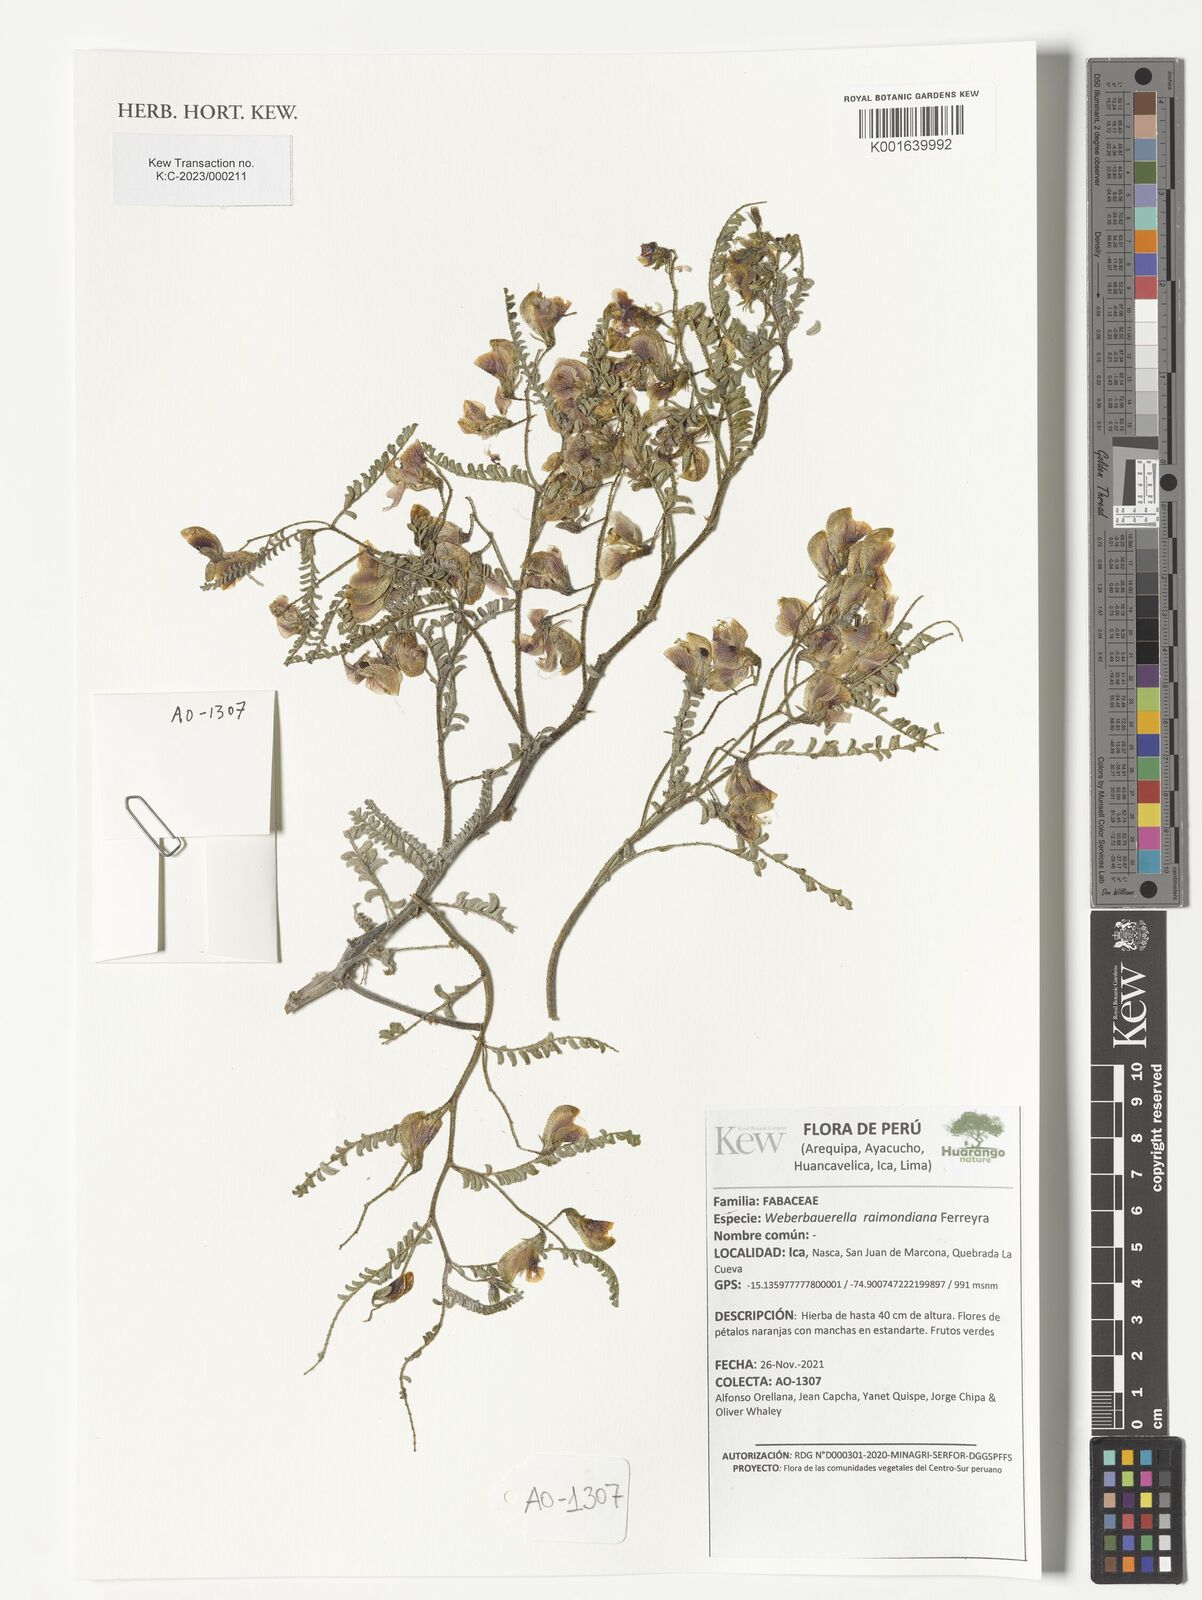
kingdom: Plantae
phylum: Tracheophyta
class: Magnoliopsida
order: Fabales
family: Fabaceae
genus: Weberbauerella
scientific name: Weberbauerella raimondiana
